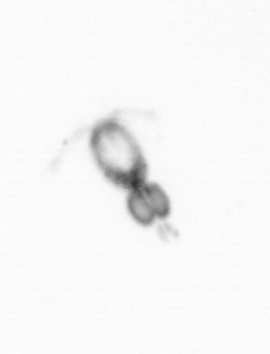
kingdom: Animalia
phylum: Arthropoda
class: Copepoda
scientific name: Copepoda
